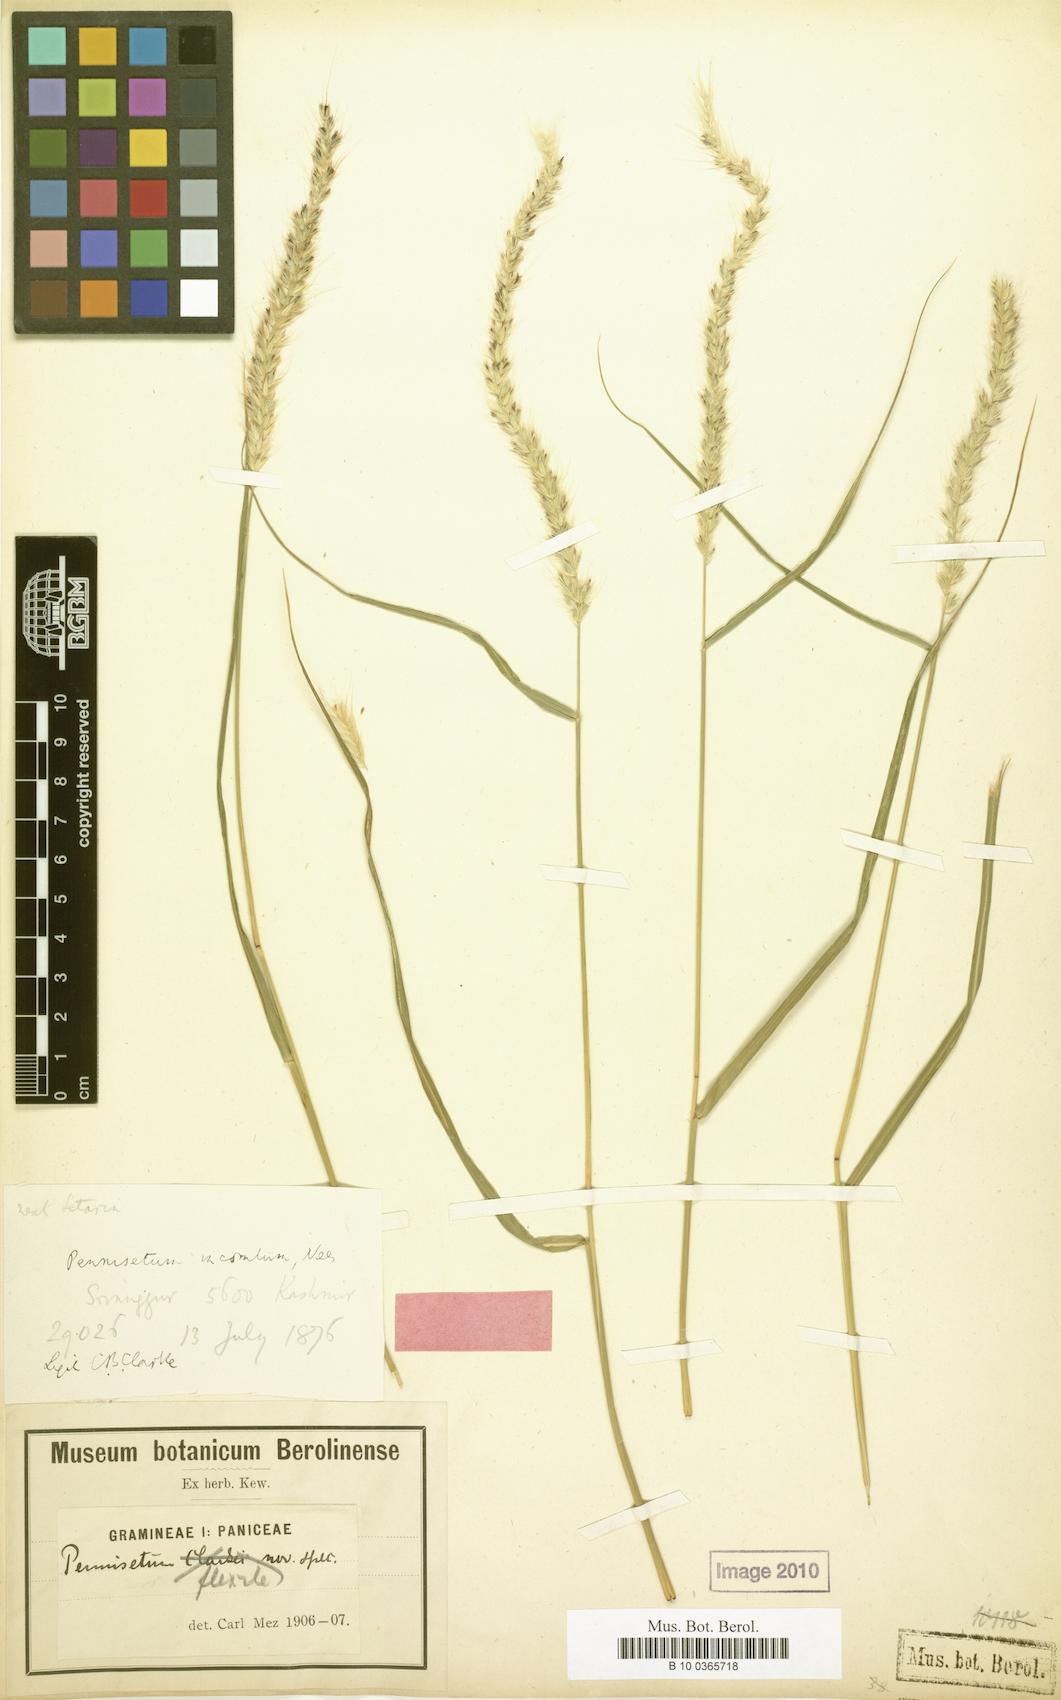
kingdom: Plantae
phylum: Tracheophyta
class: Liliopsida
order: Poales
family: Poaceae
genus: Cenchrus
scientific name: Cenchrus flexilis
